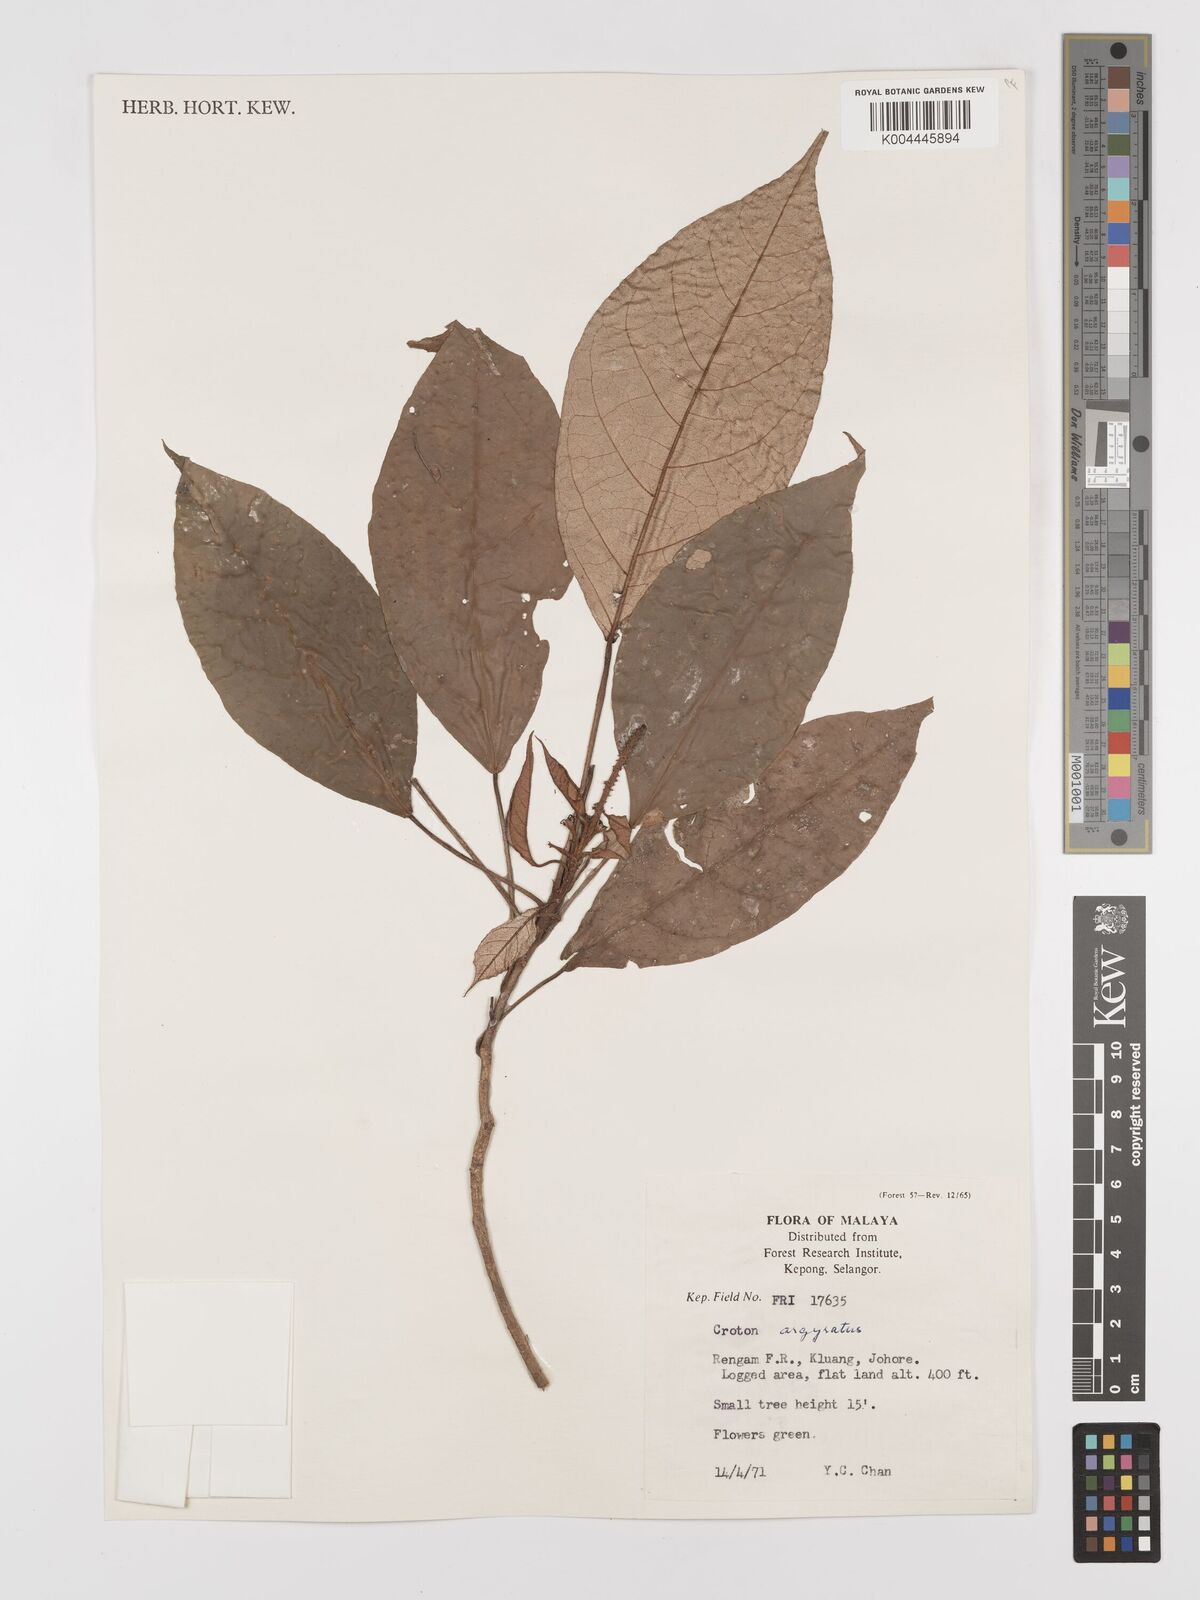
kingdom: Plantae
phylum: Tracheophyta
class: Magnoliopsida
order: Malpighiales
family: Euphorbiaceae
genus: Croton
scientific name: Croton argyratus
